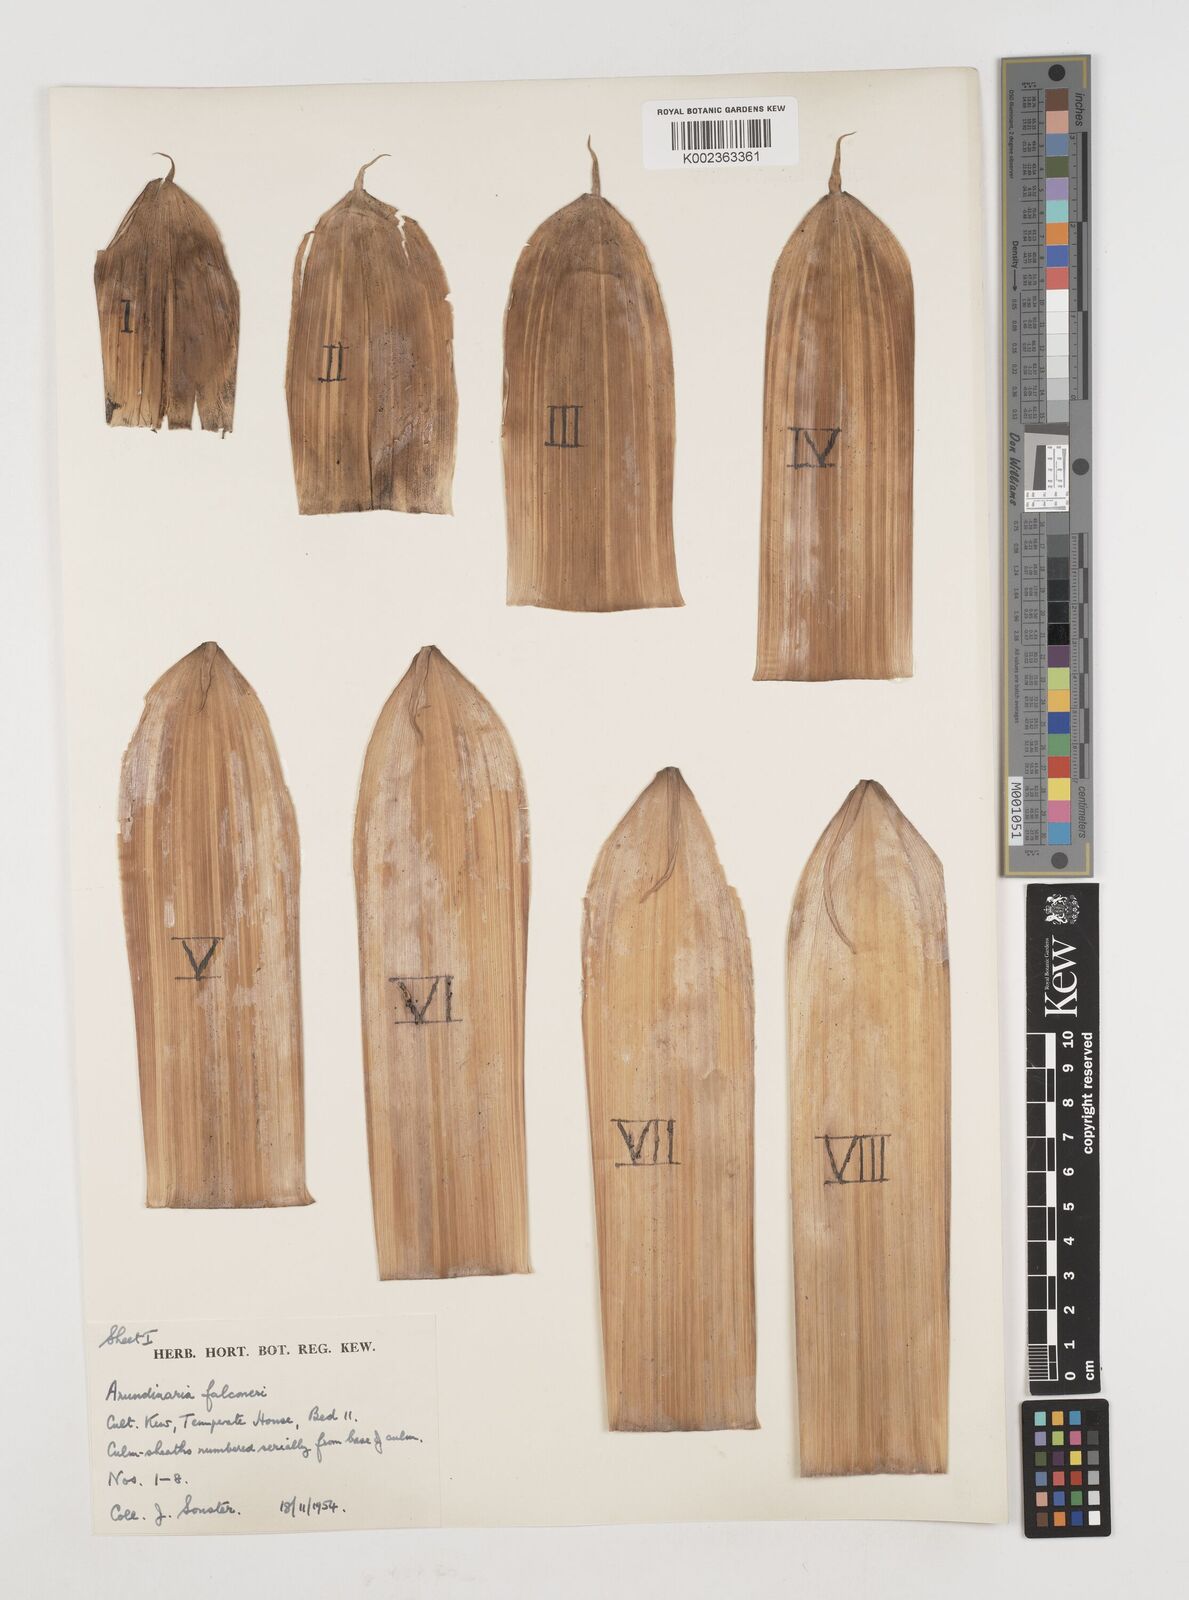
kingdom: Plantae
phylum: Tracheophyta
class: Liliopsida
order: Poales
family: Poaceae
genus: Himalayacalamus
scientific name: Himalayacalamus falconeri
